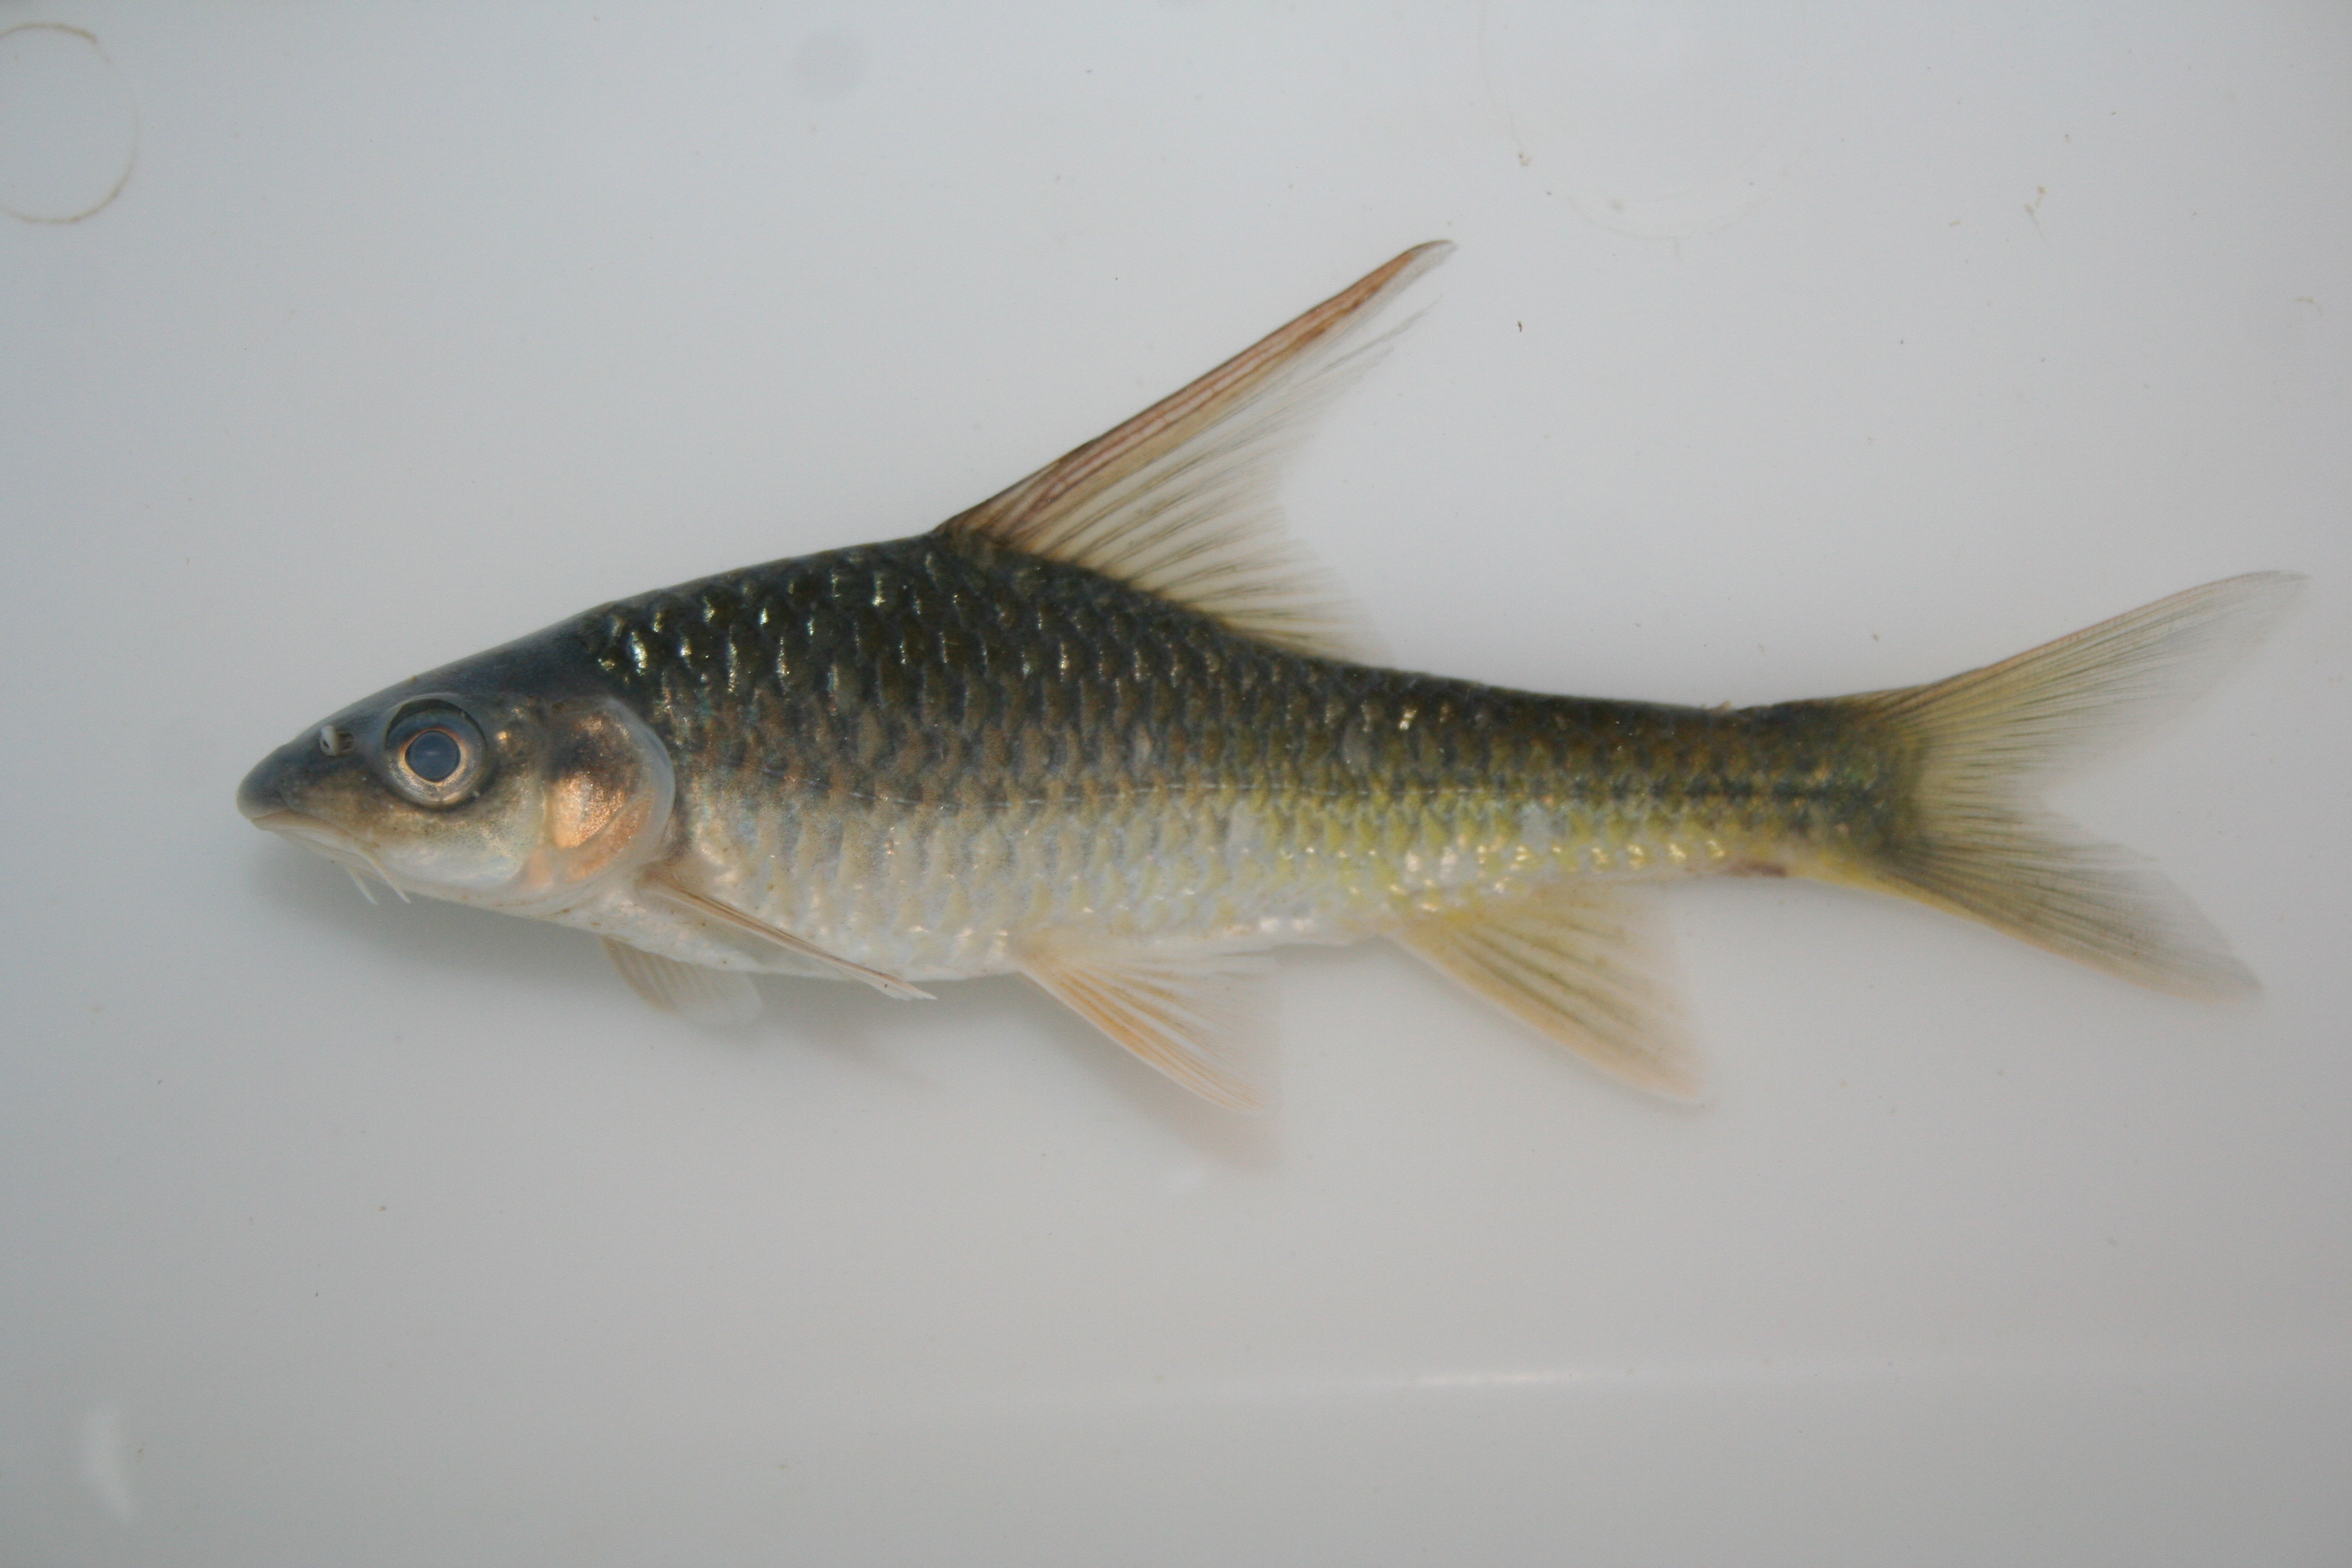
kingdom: Animalia
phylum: Chordata
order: Cypriniformes
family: Cyprinidae
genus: Labeobarbus
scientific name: Labeobarbus rosae
